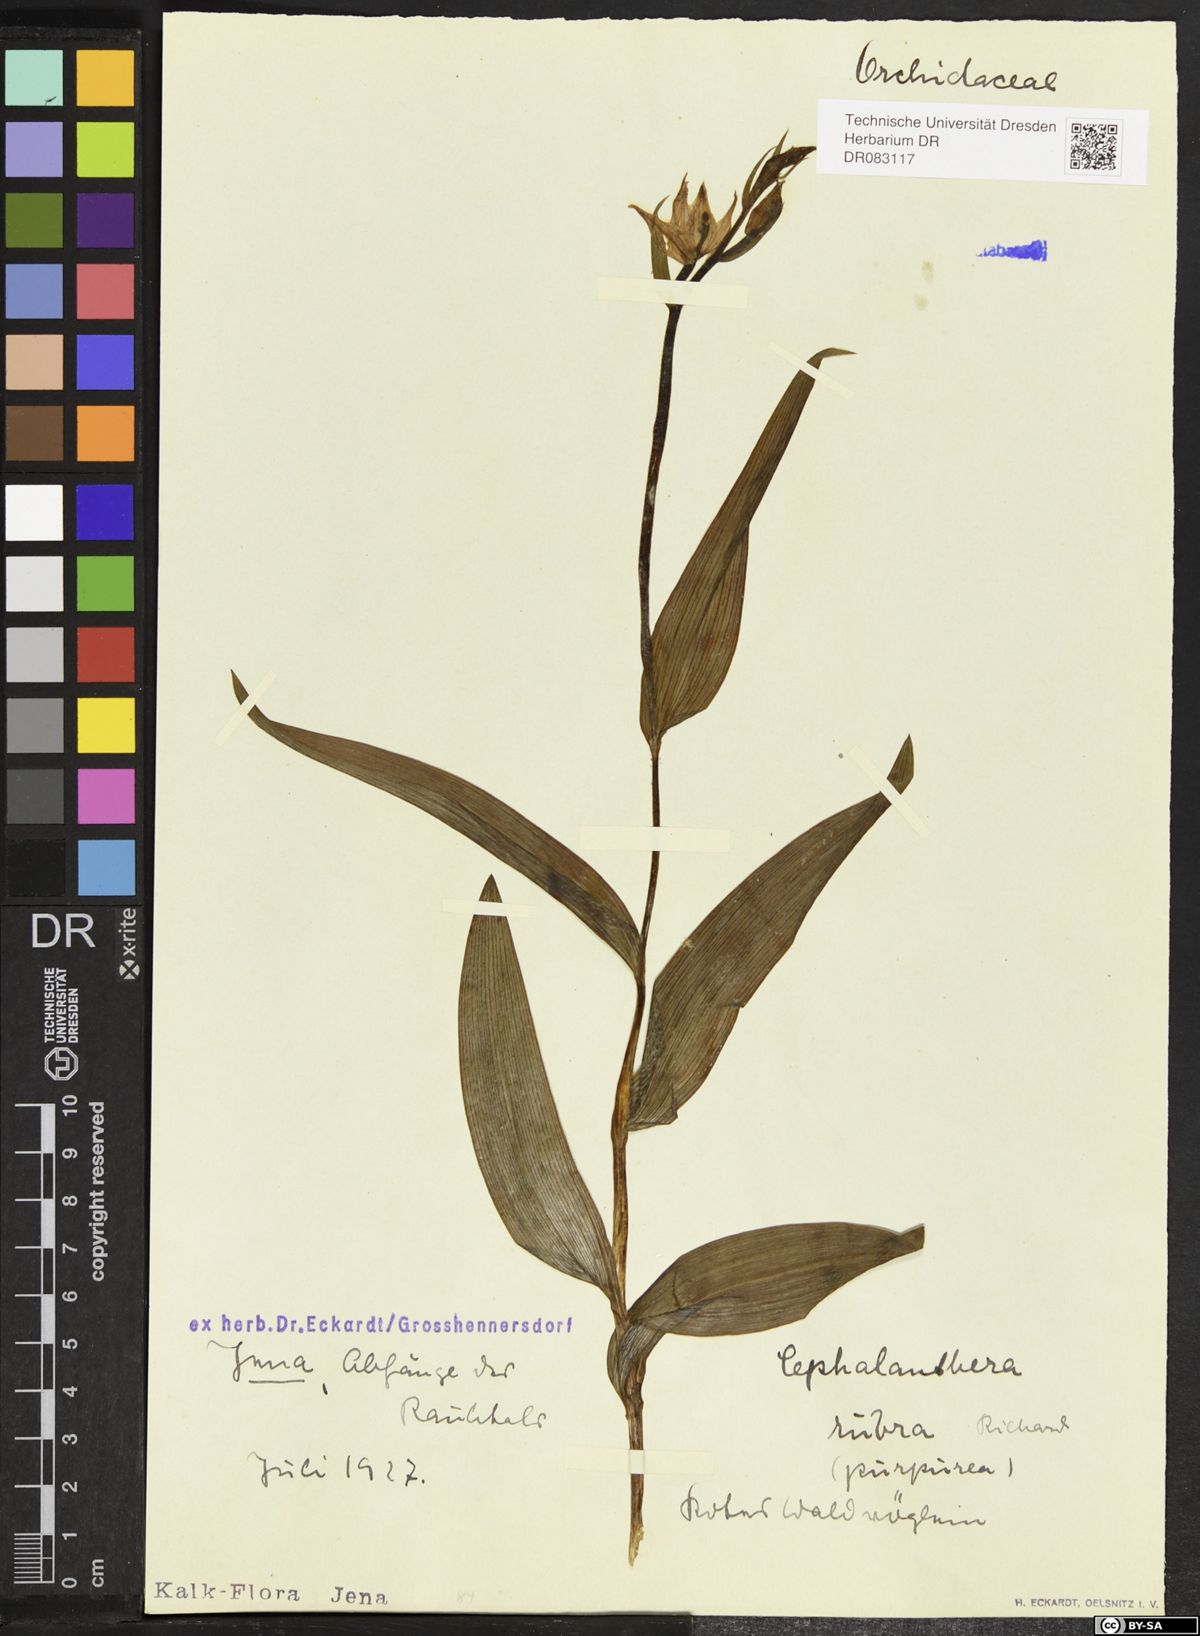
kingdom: Plantae
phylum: Tracheophyta
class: Liliopsida
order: Asparagales
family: Orchidaceae
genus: Cephalanthera
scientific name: Cephalanthera rubra
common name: Red helleborine
